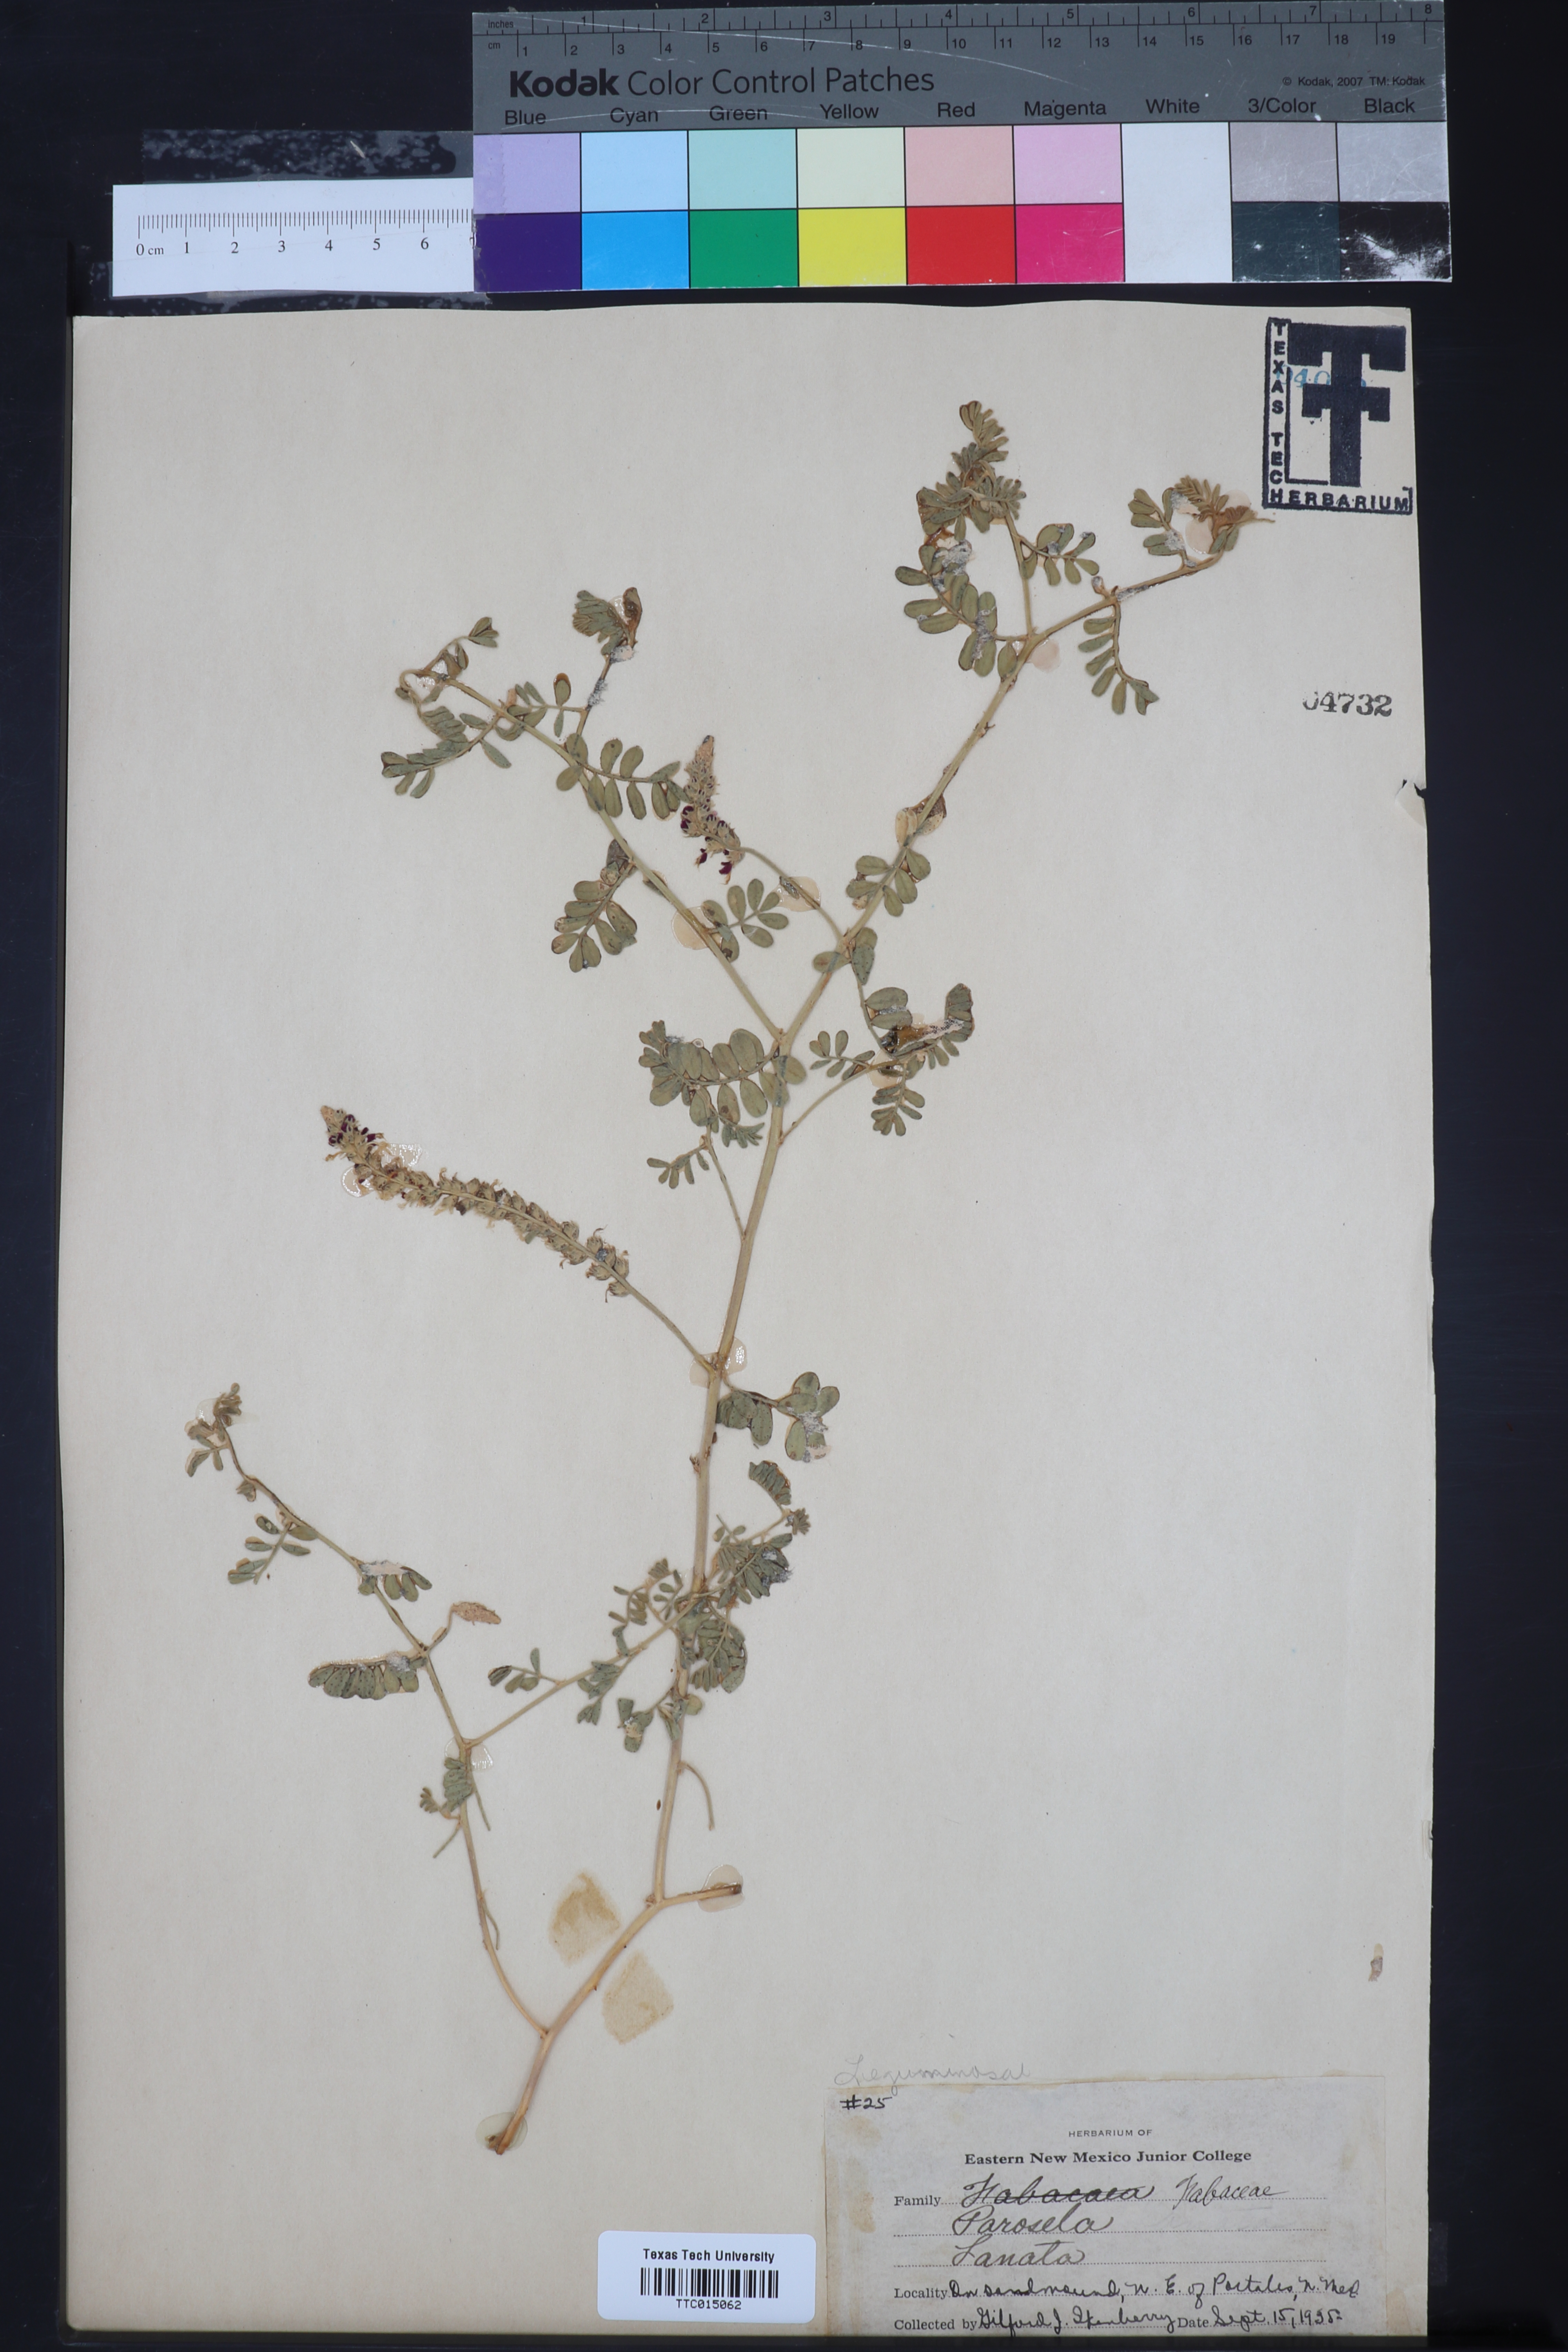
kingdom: Plantae
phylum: Tracheophyta
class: Magnoliopsida
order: Fabales
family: Fabaceae
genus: Dalea
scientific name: Dalea lanata
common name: Woolly dalea
